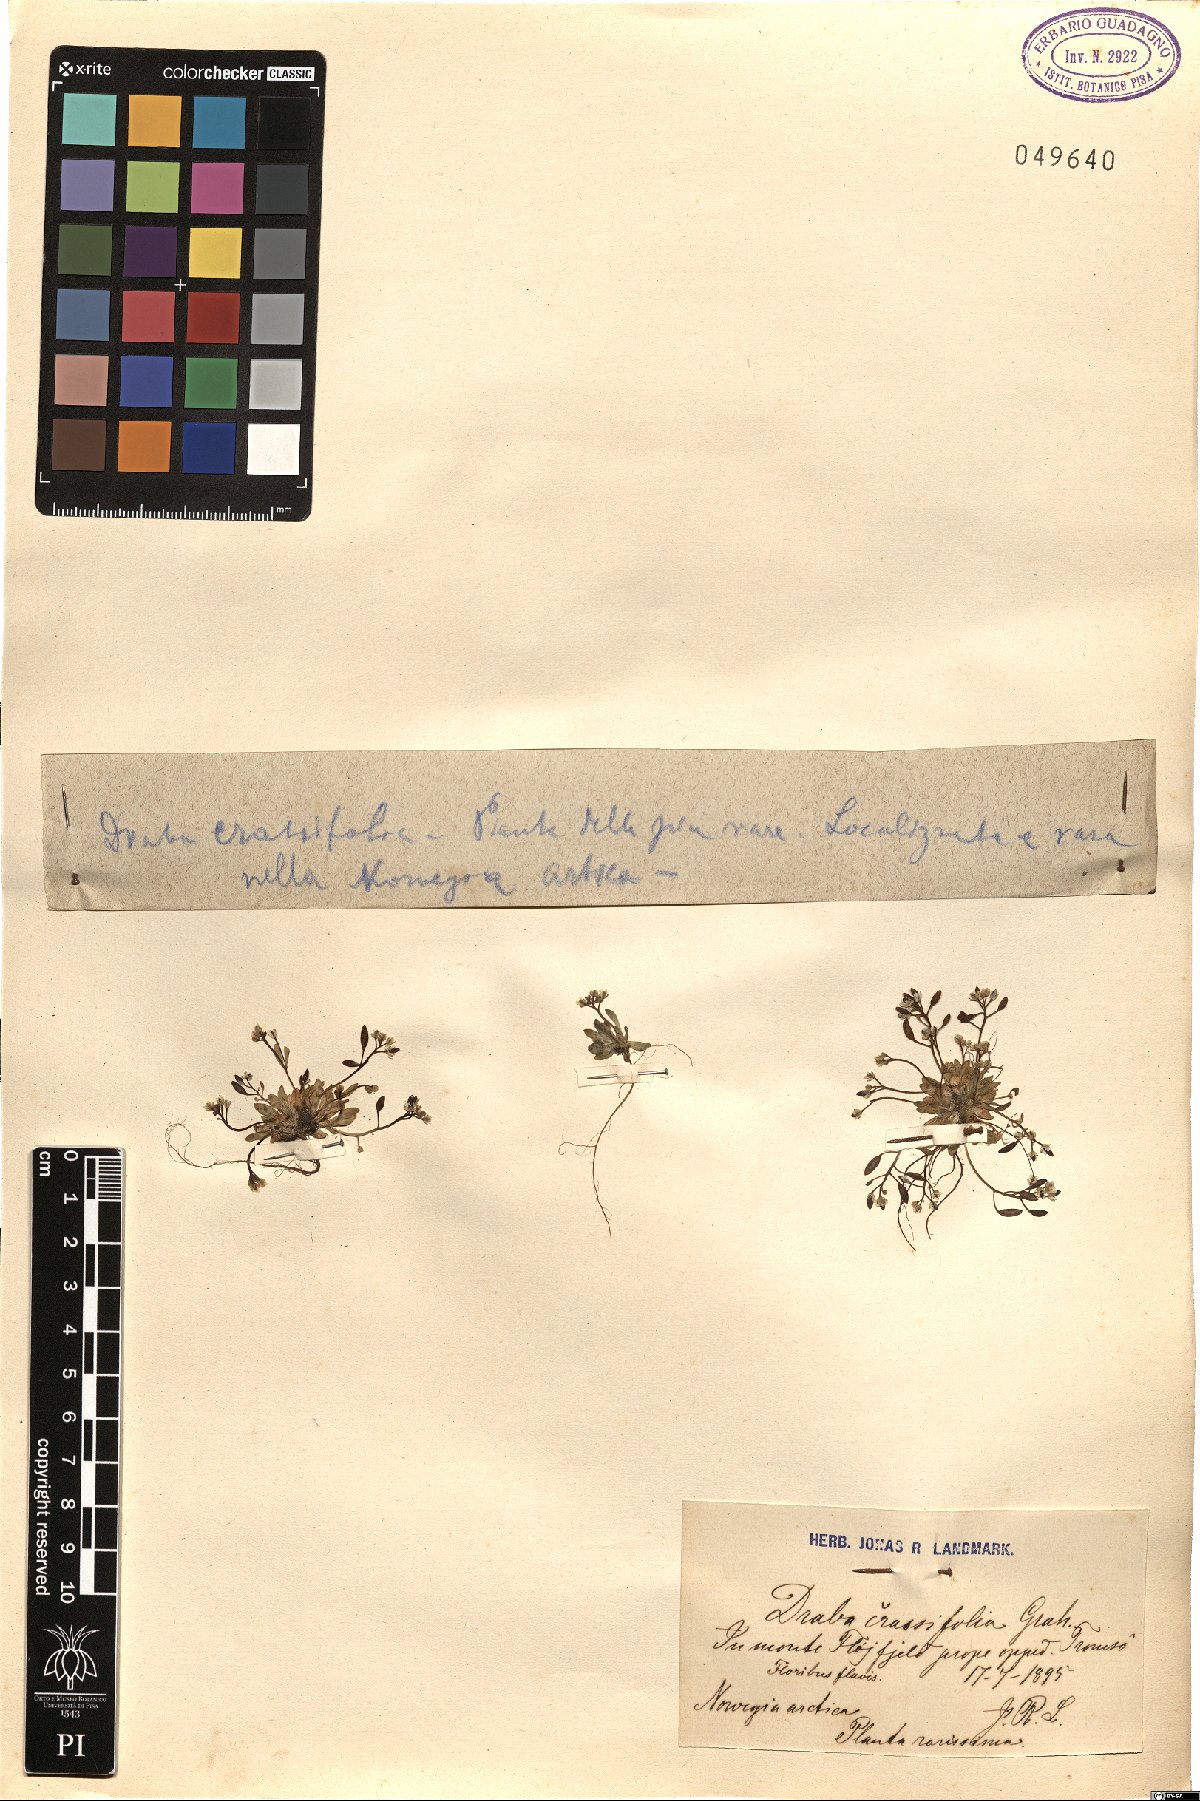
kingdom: Plantae
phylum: Tracheophyta
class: Magnoliopsida
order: Brassicales
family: Brassicaceae
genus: Draba
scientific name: Draba crassifolia
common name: Rocky mountain draba
